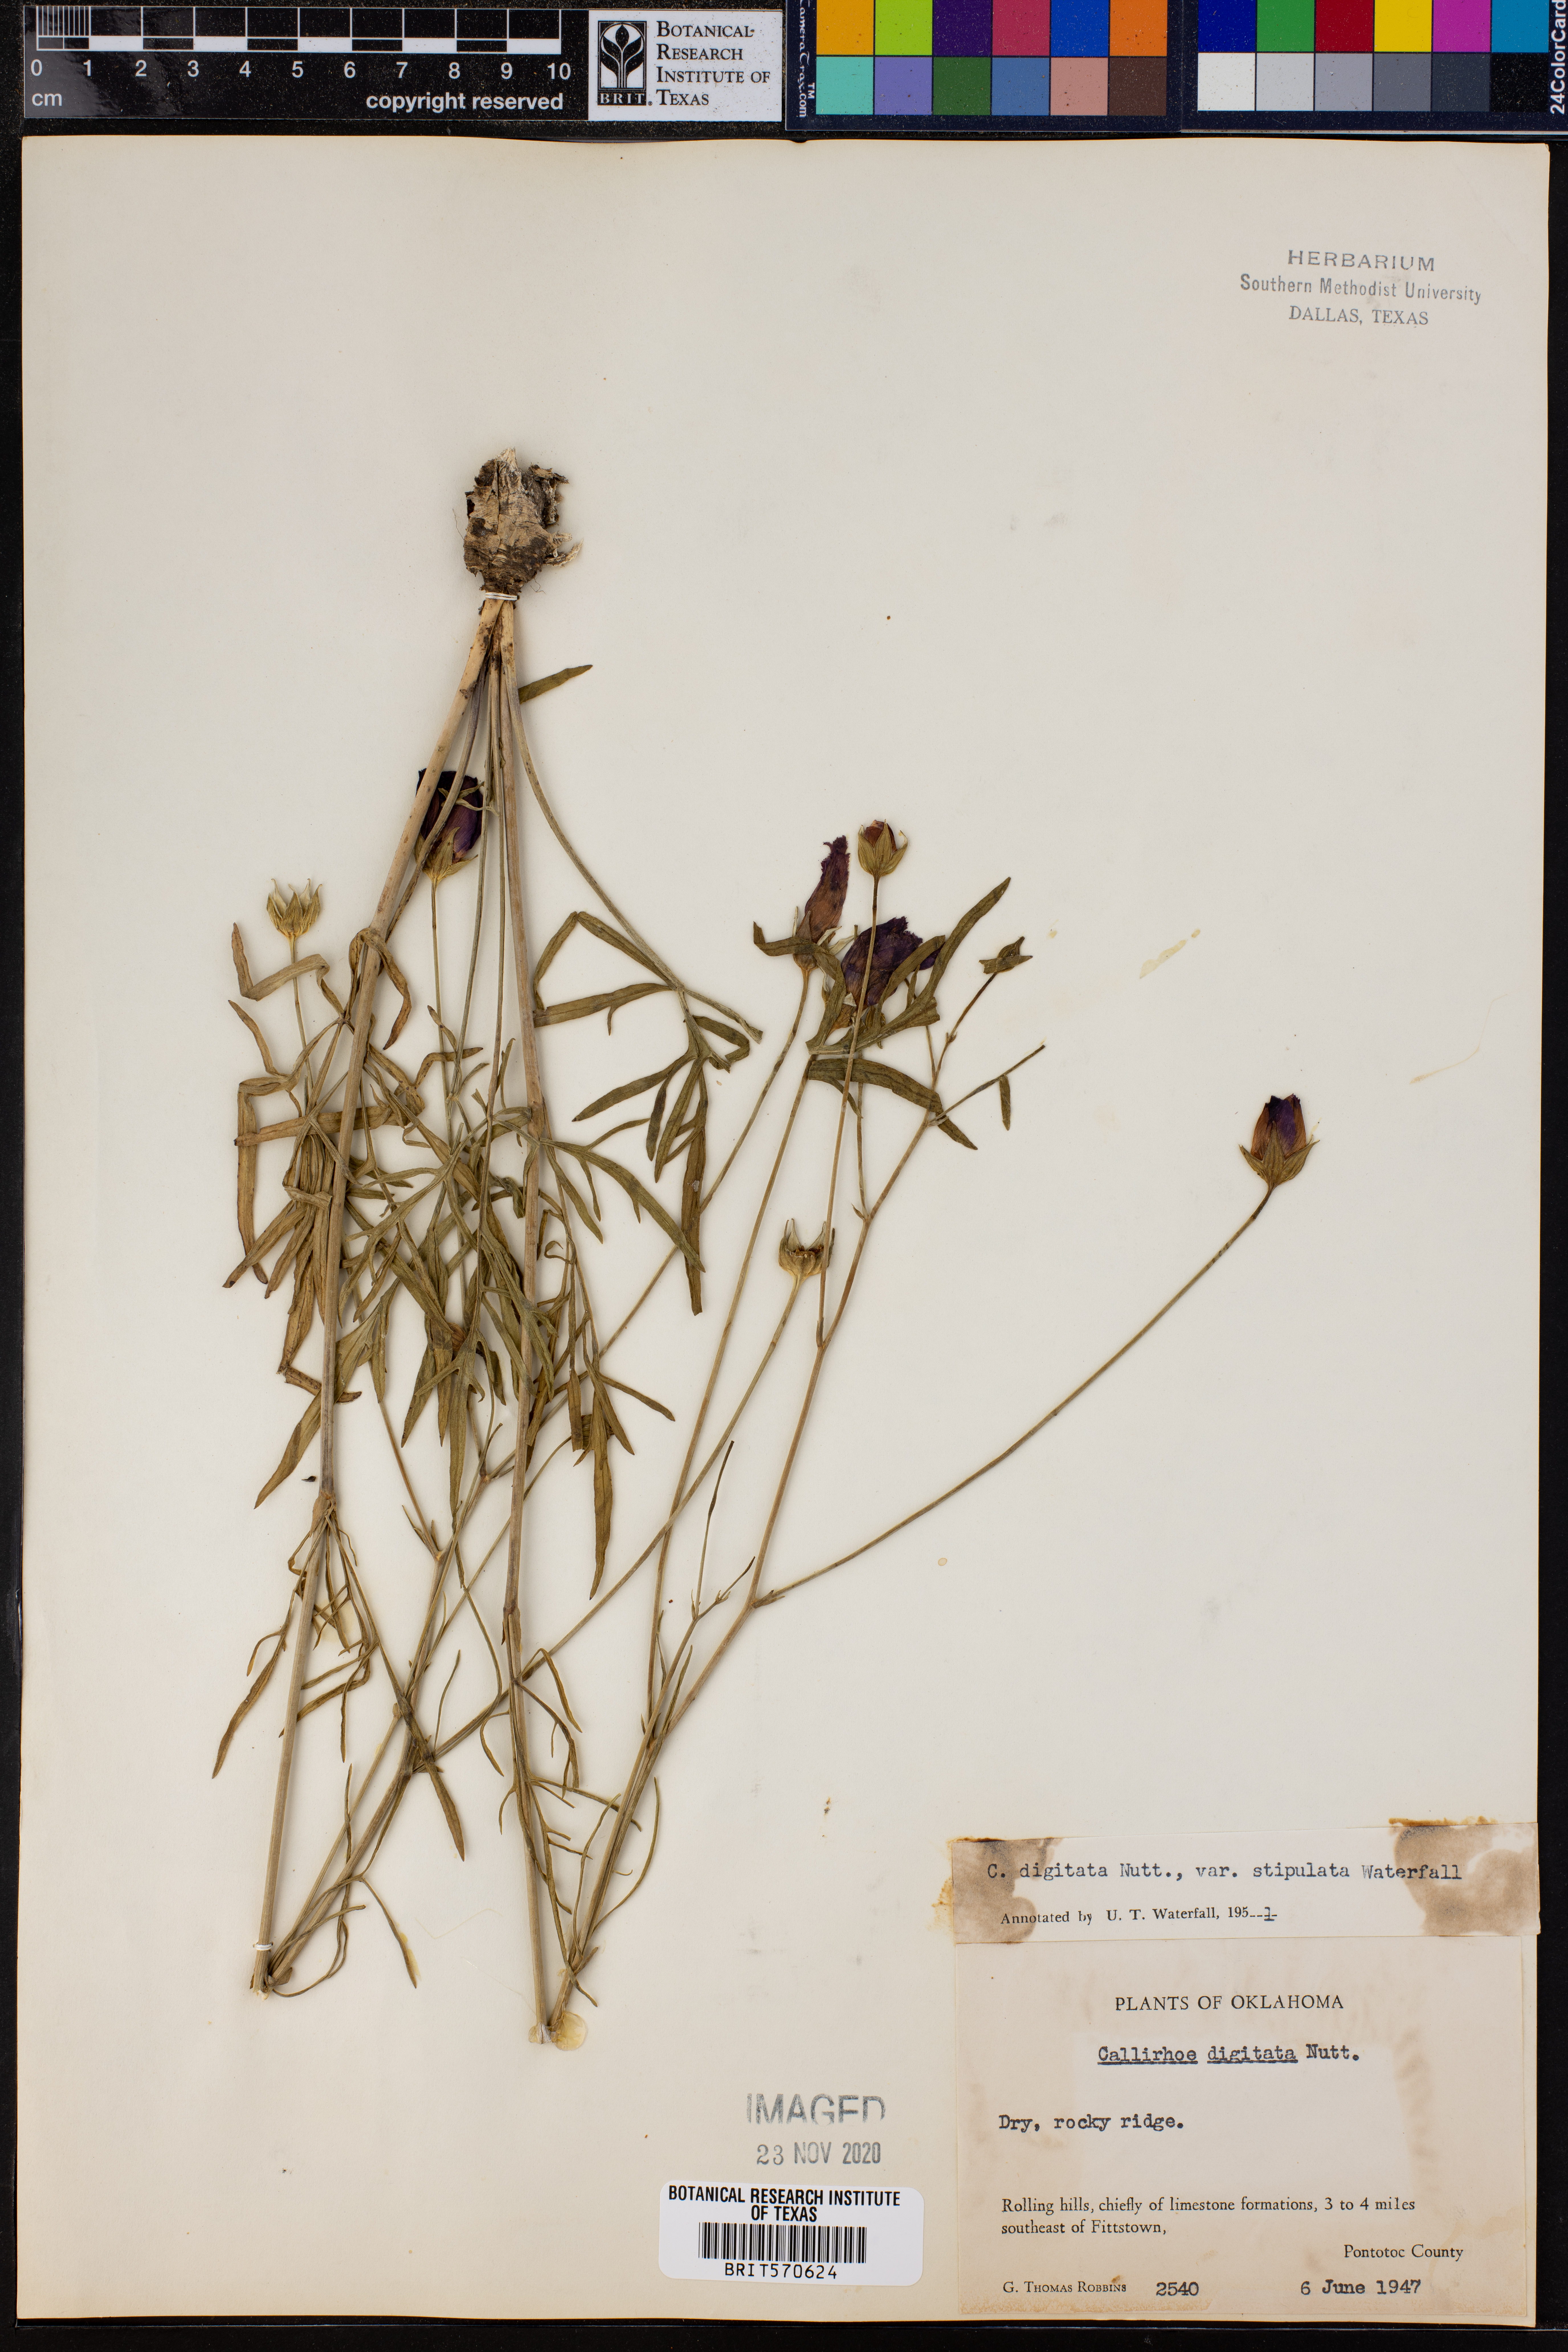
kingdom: Plantae
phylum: Tracheophyta
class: Magnoliopsida
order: Malvales
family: Malvaceae
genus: Callirhoe
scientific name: Callirhoe pedata
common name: Finger poppy-mallow
